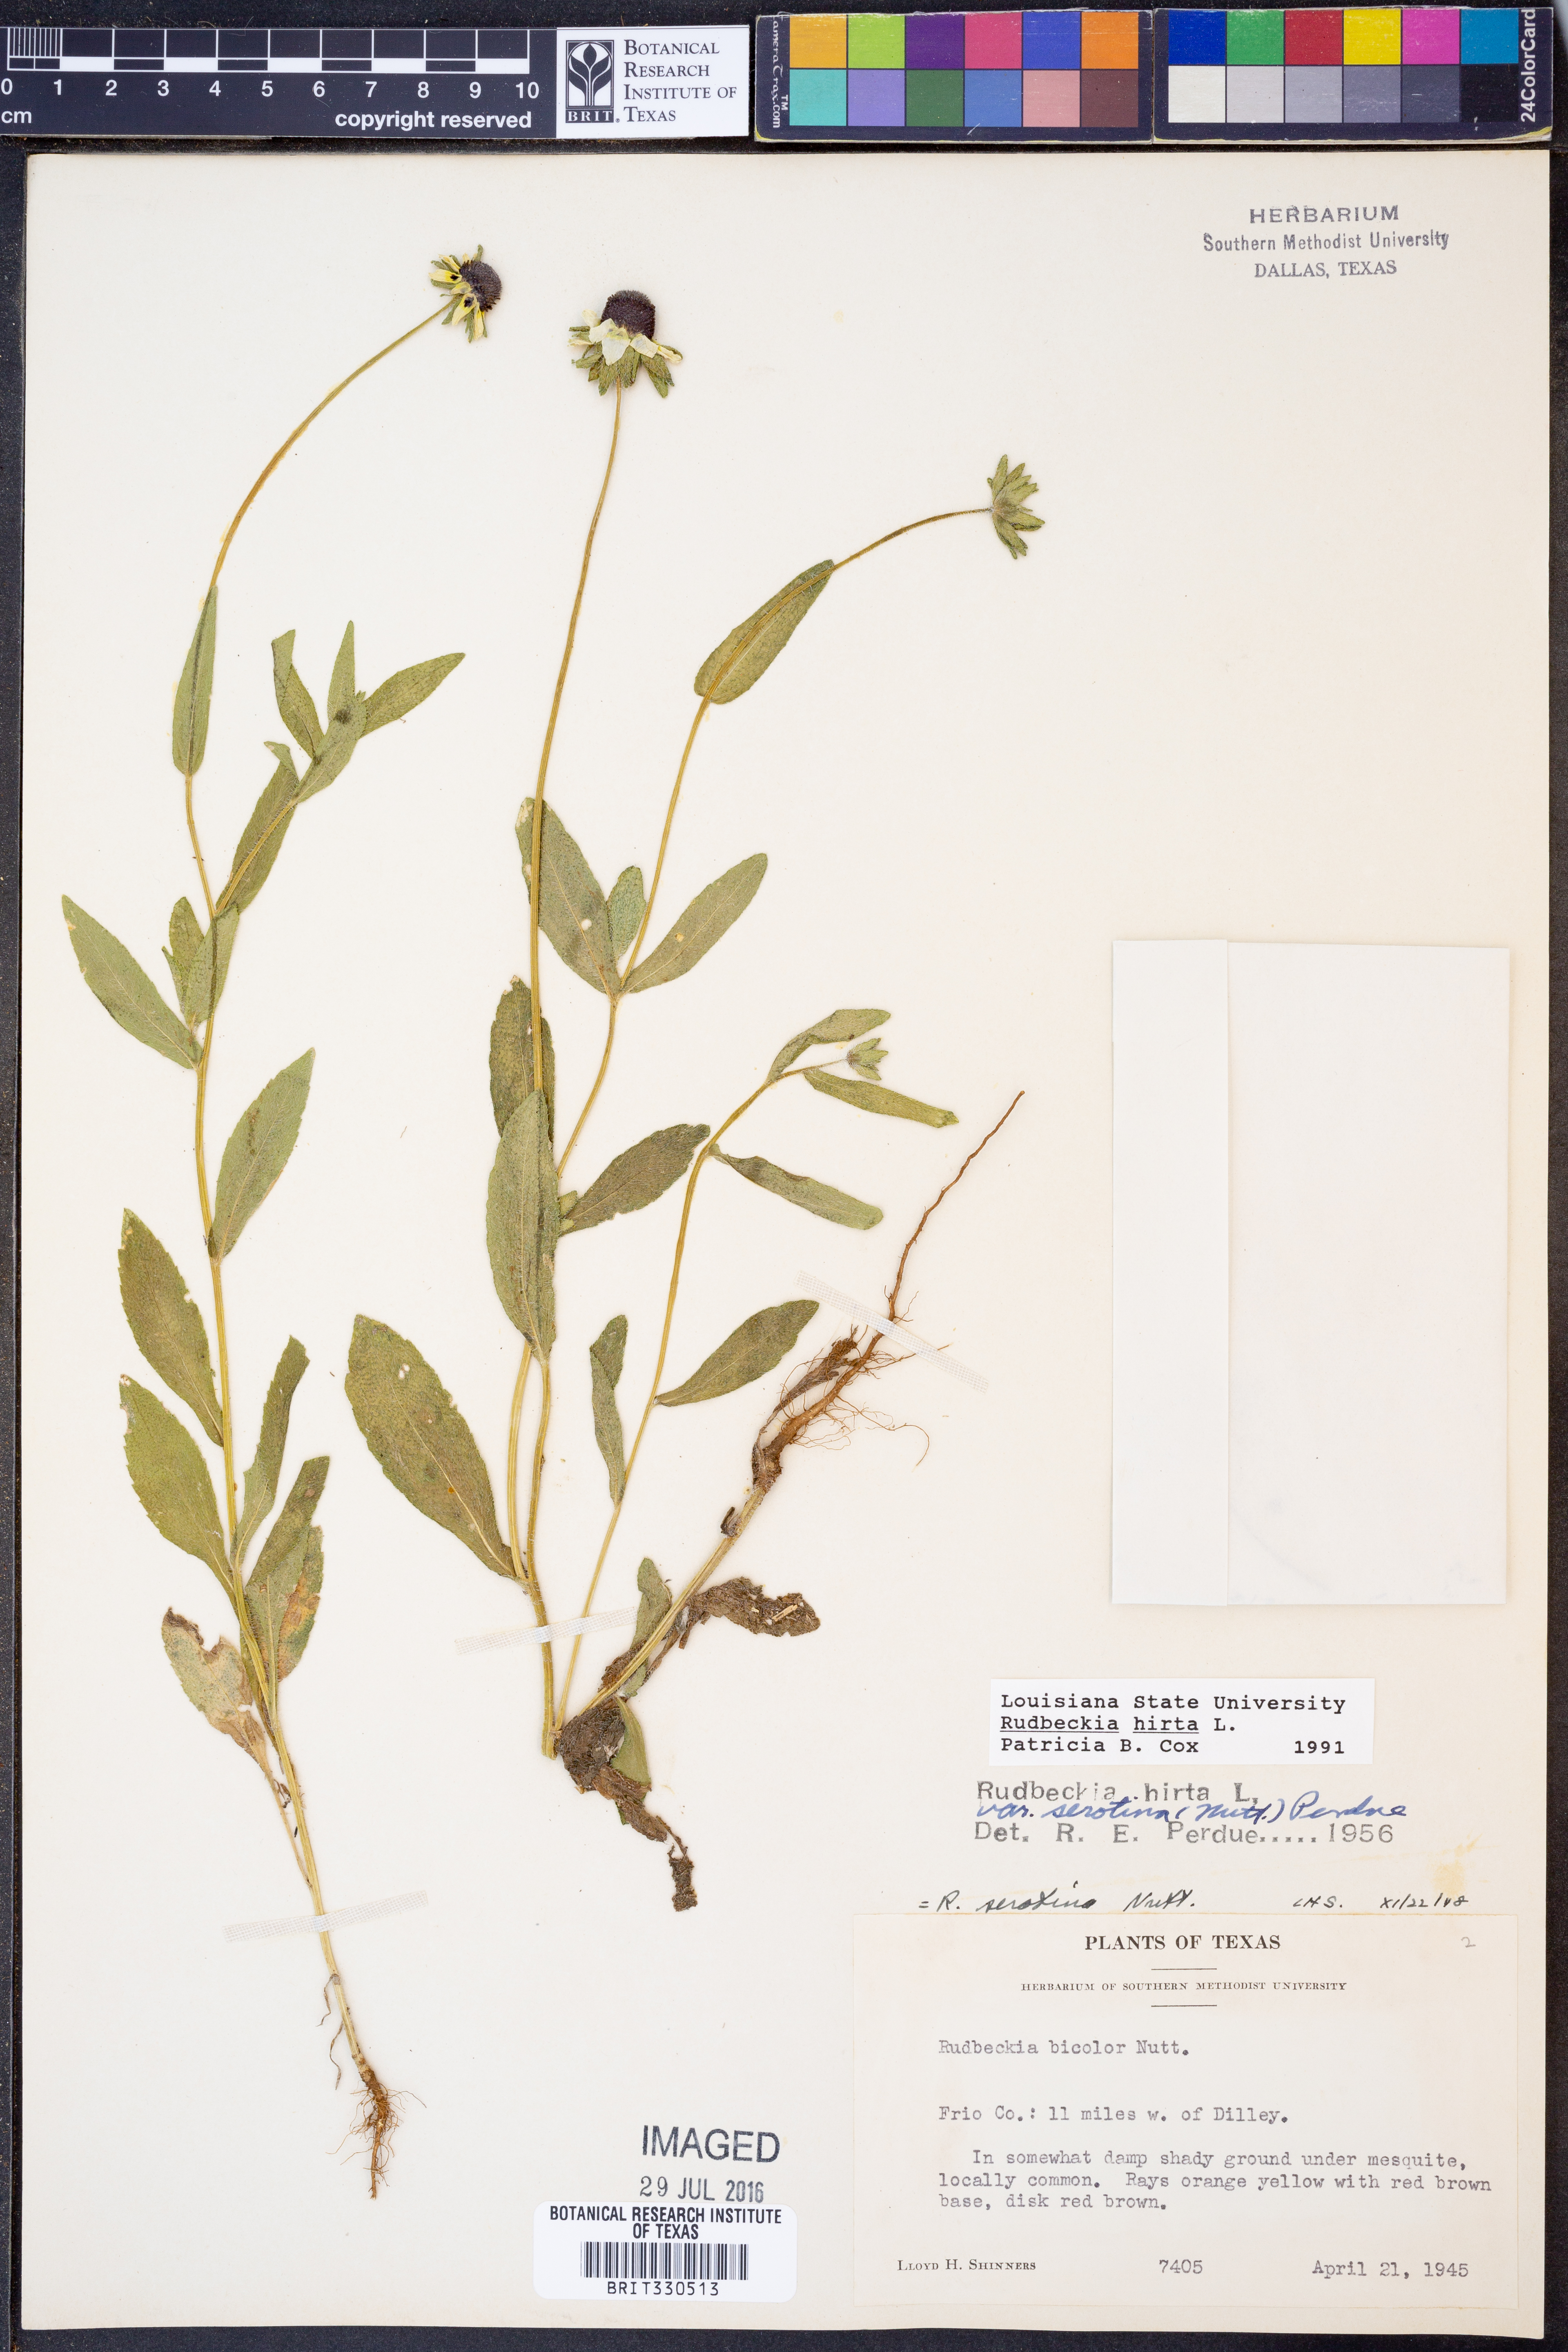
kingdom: Plantae
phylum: Tracheophyta
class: Magnoliopsida
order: Asterales
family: Asteraceae
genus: Rudbeckia
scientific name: Rudbeckia hirta
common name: Black-eyed-susan
